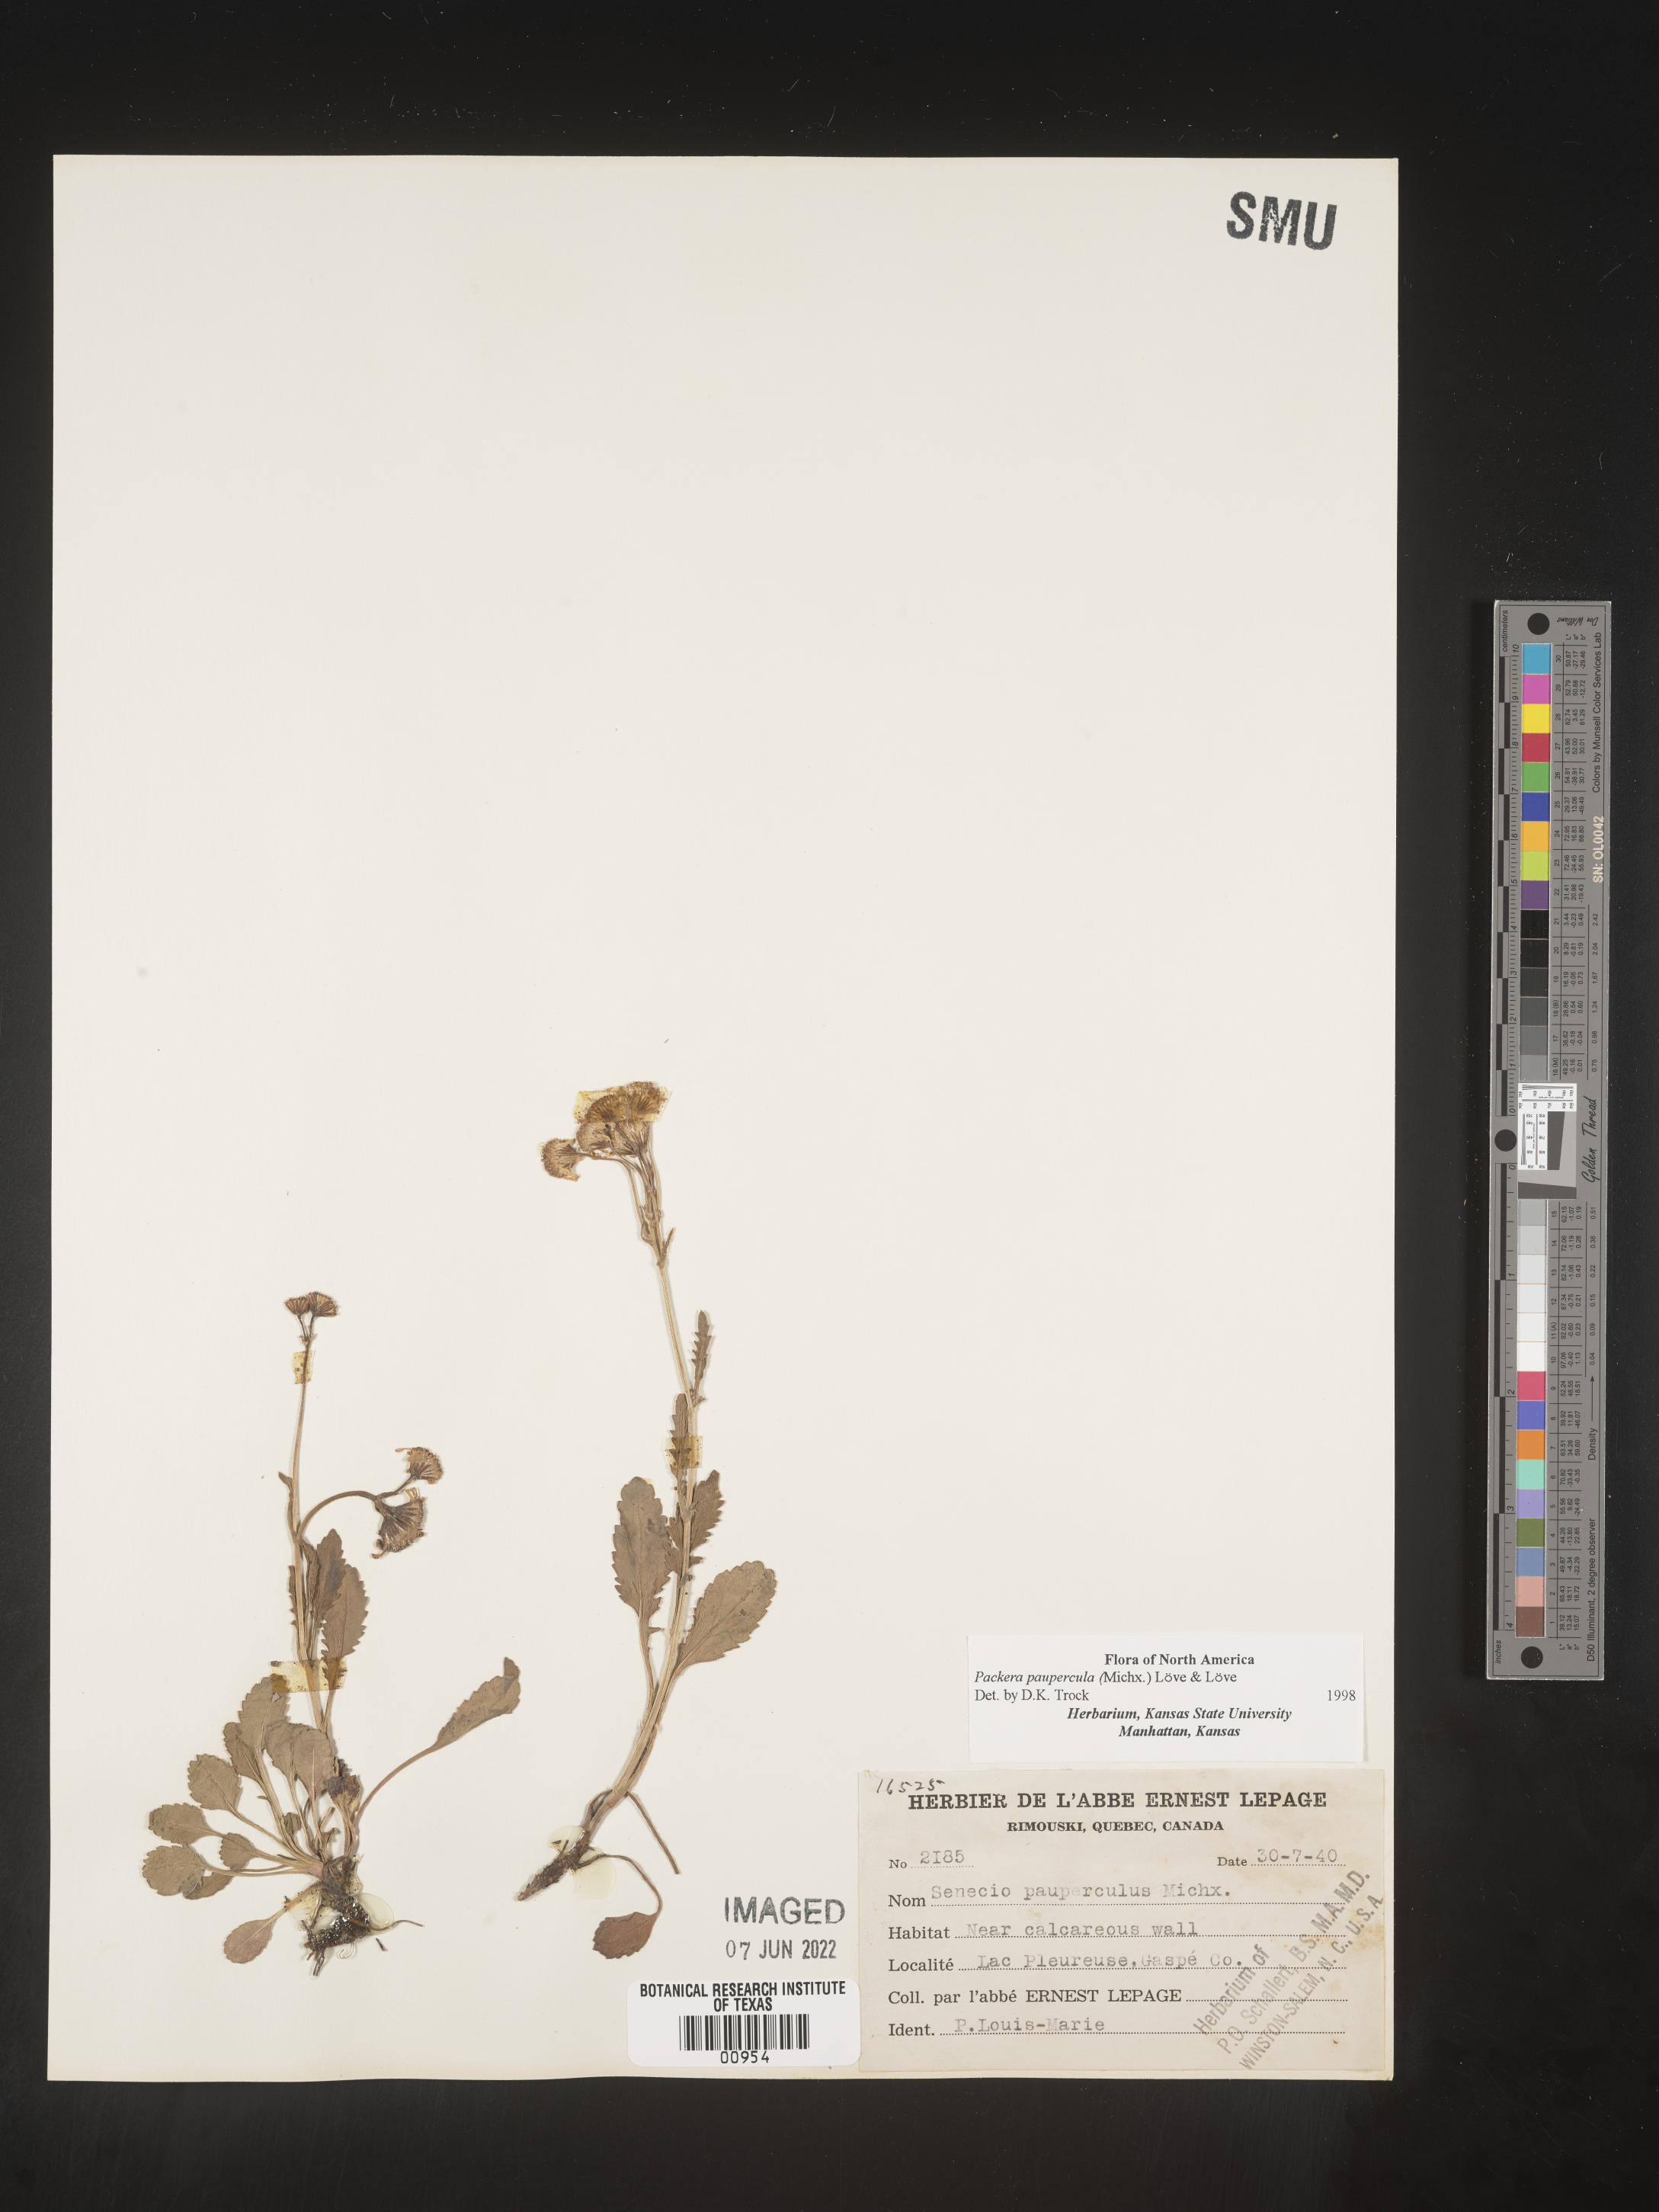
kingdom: Plantae
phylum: Tracheophyta
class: Magnoliopsida
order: Asterales
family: Asteraceae
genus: Packera
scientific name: Packera paupercula
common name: Balsam groundsel
